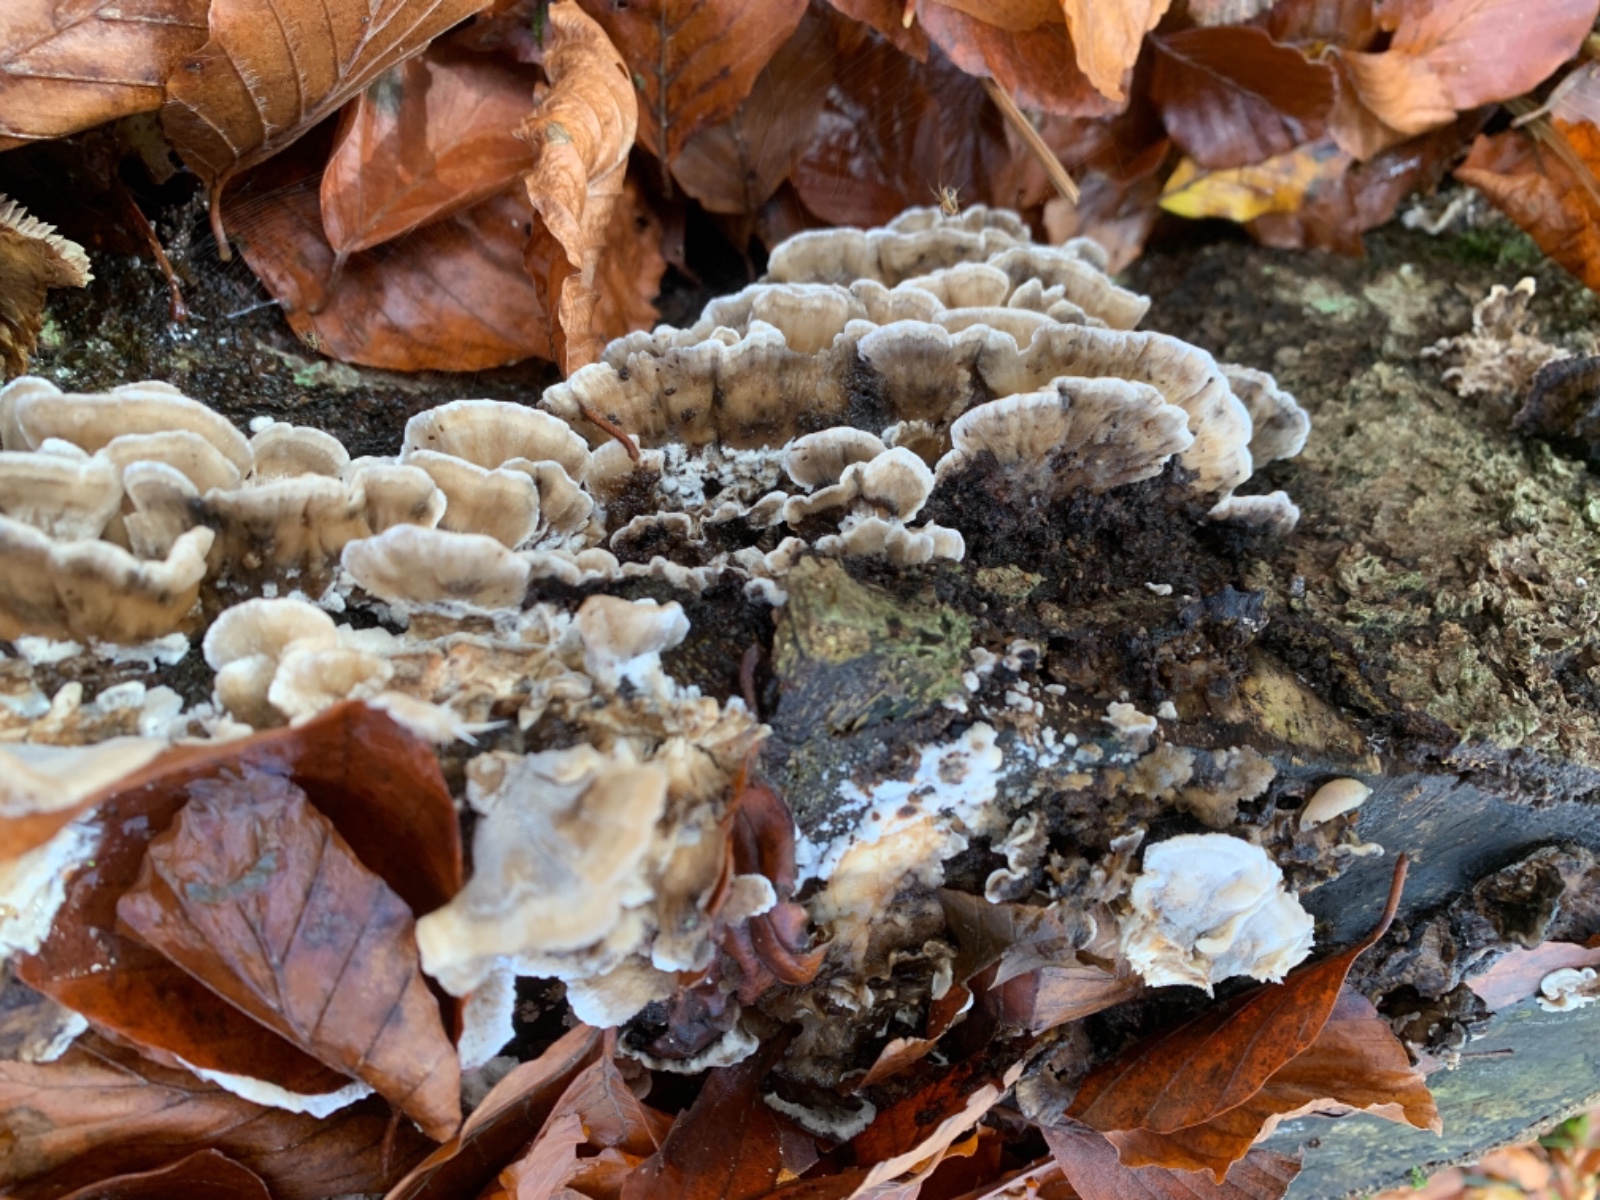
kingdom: Fungi
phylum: Basidiomycota
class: Agaricomycetes
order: Polyporales
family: Phanerochaetaceae
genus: Bjerkandera
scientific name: Bjerkandera adusta
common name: sveden sodporesvamp
